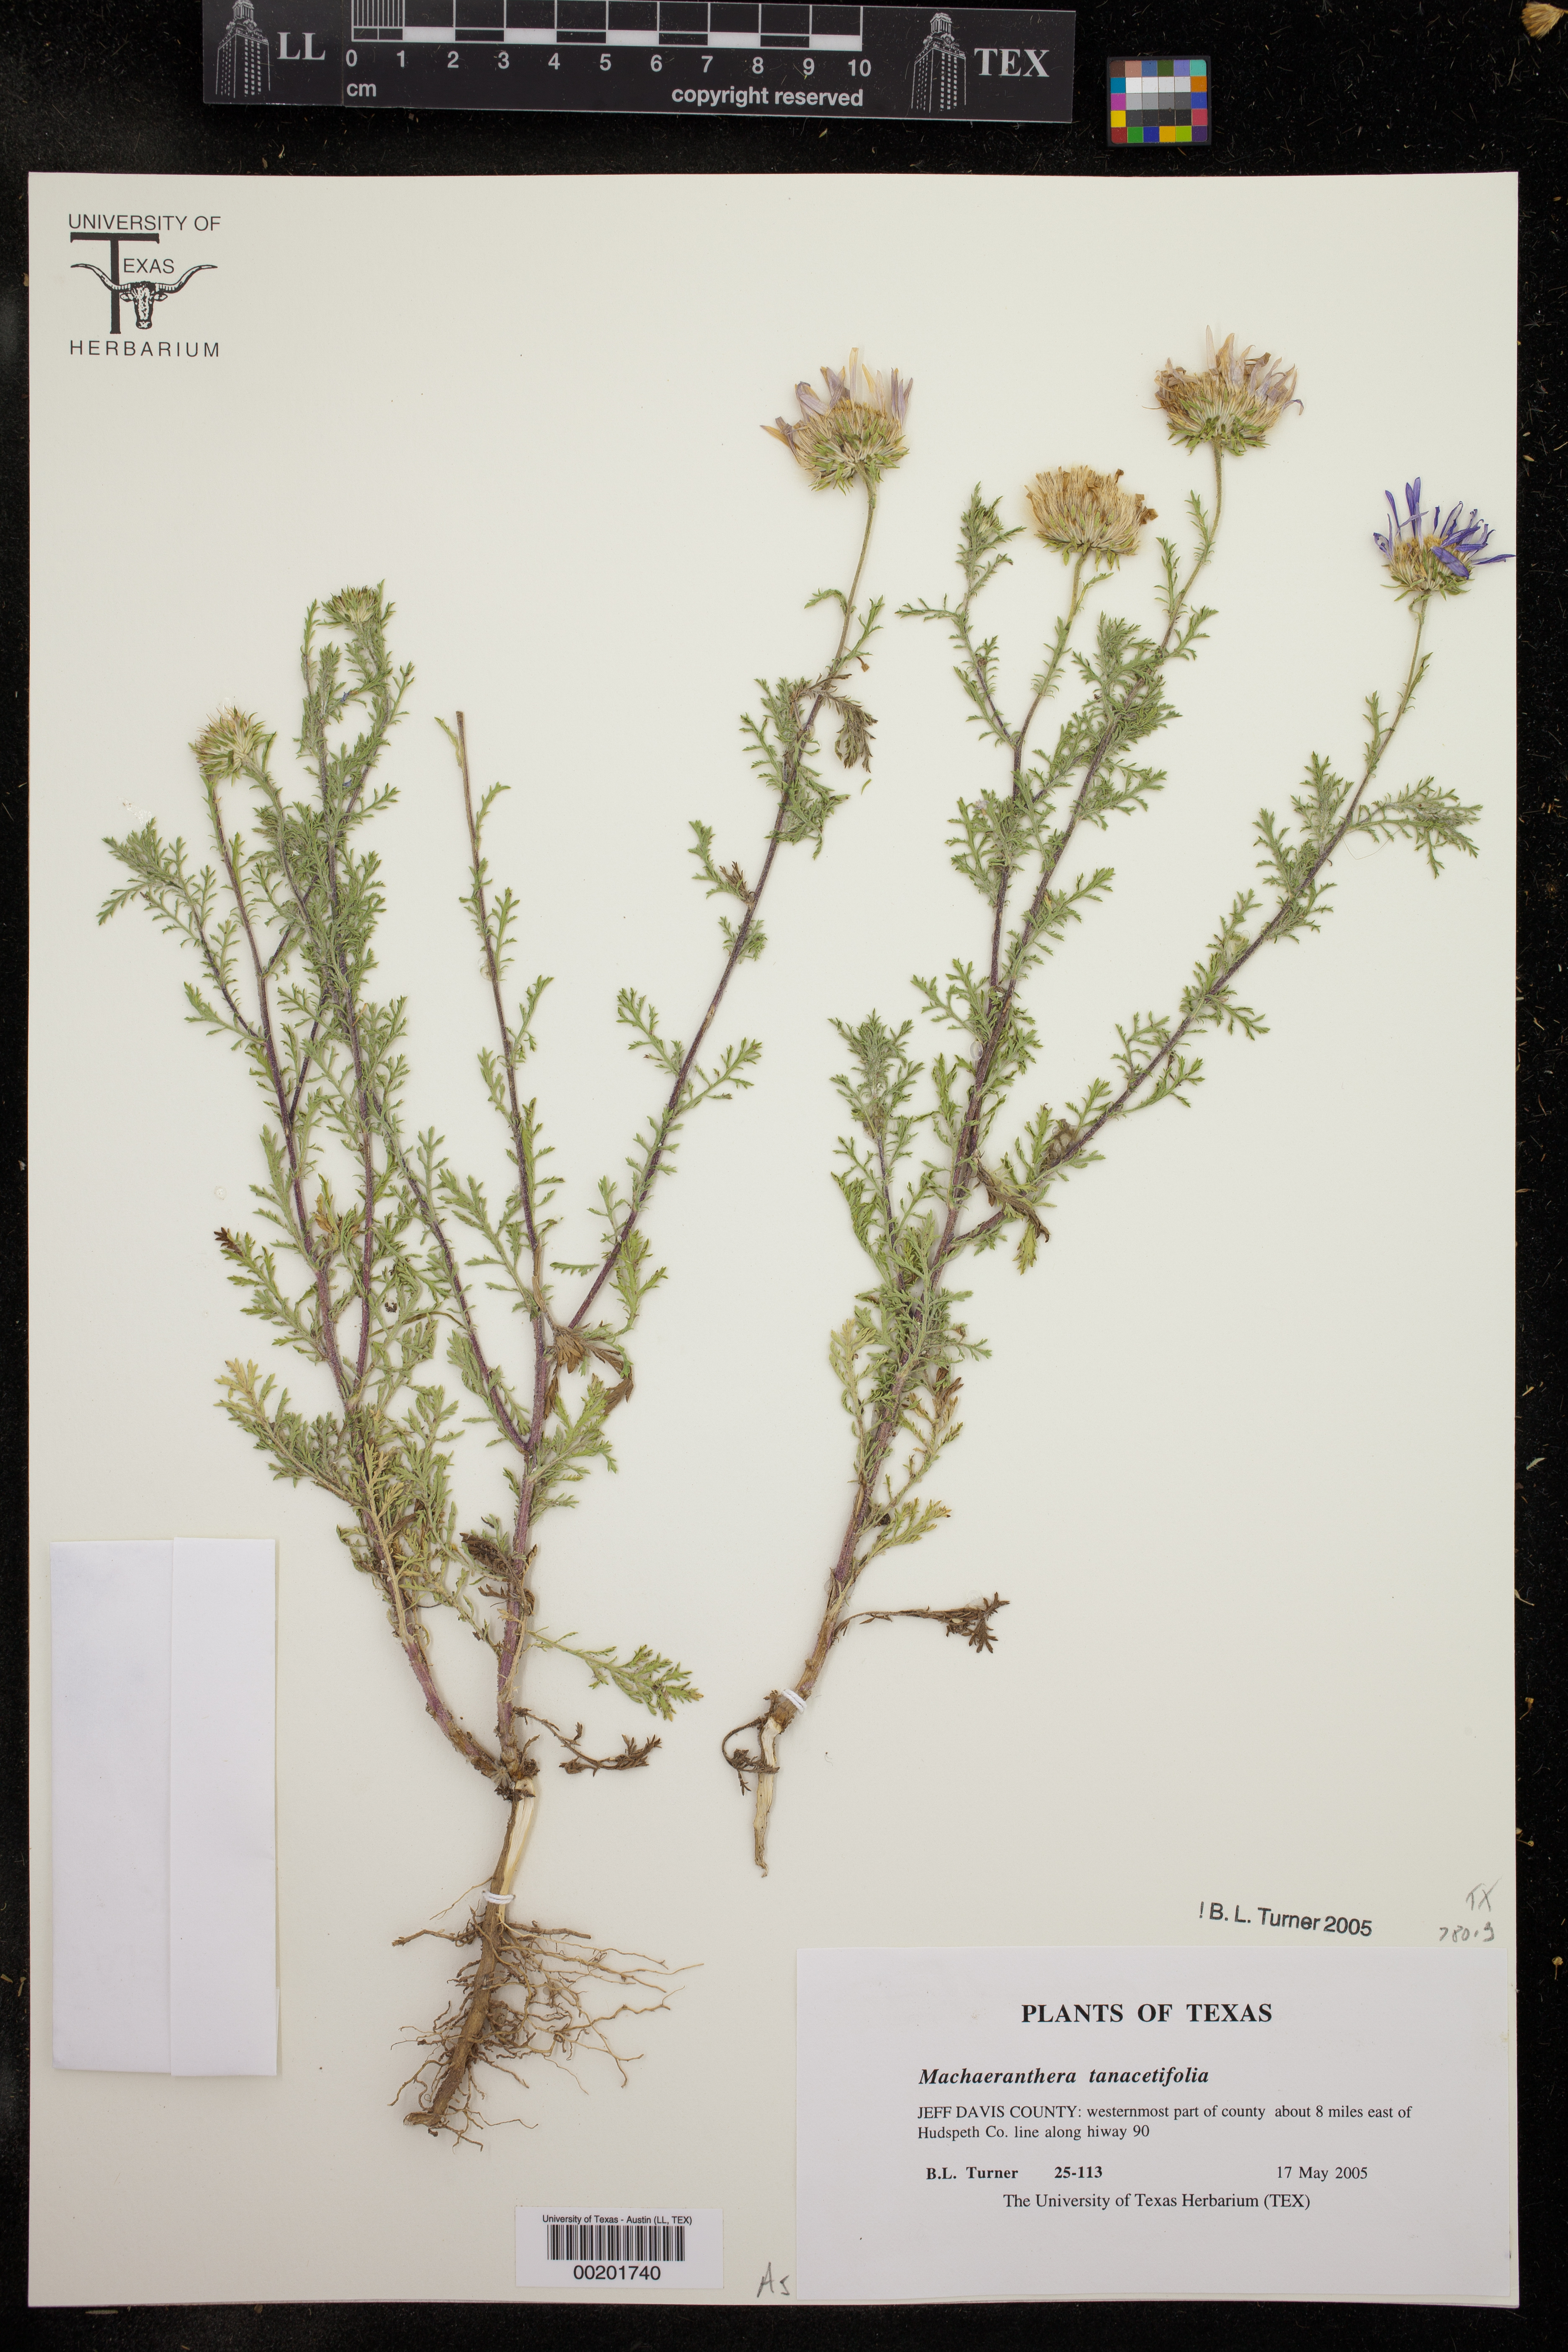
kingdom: Plantae
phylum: Tracheophyta
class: Magnoliopsida
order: Asterales
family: Asteraceae
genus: Machaeranthera
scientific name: Machaeranthera tanacetifolia
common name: Tansy-aster
